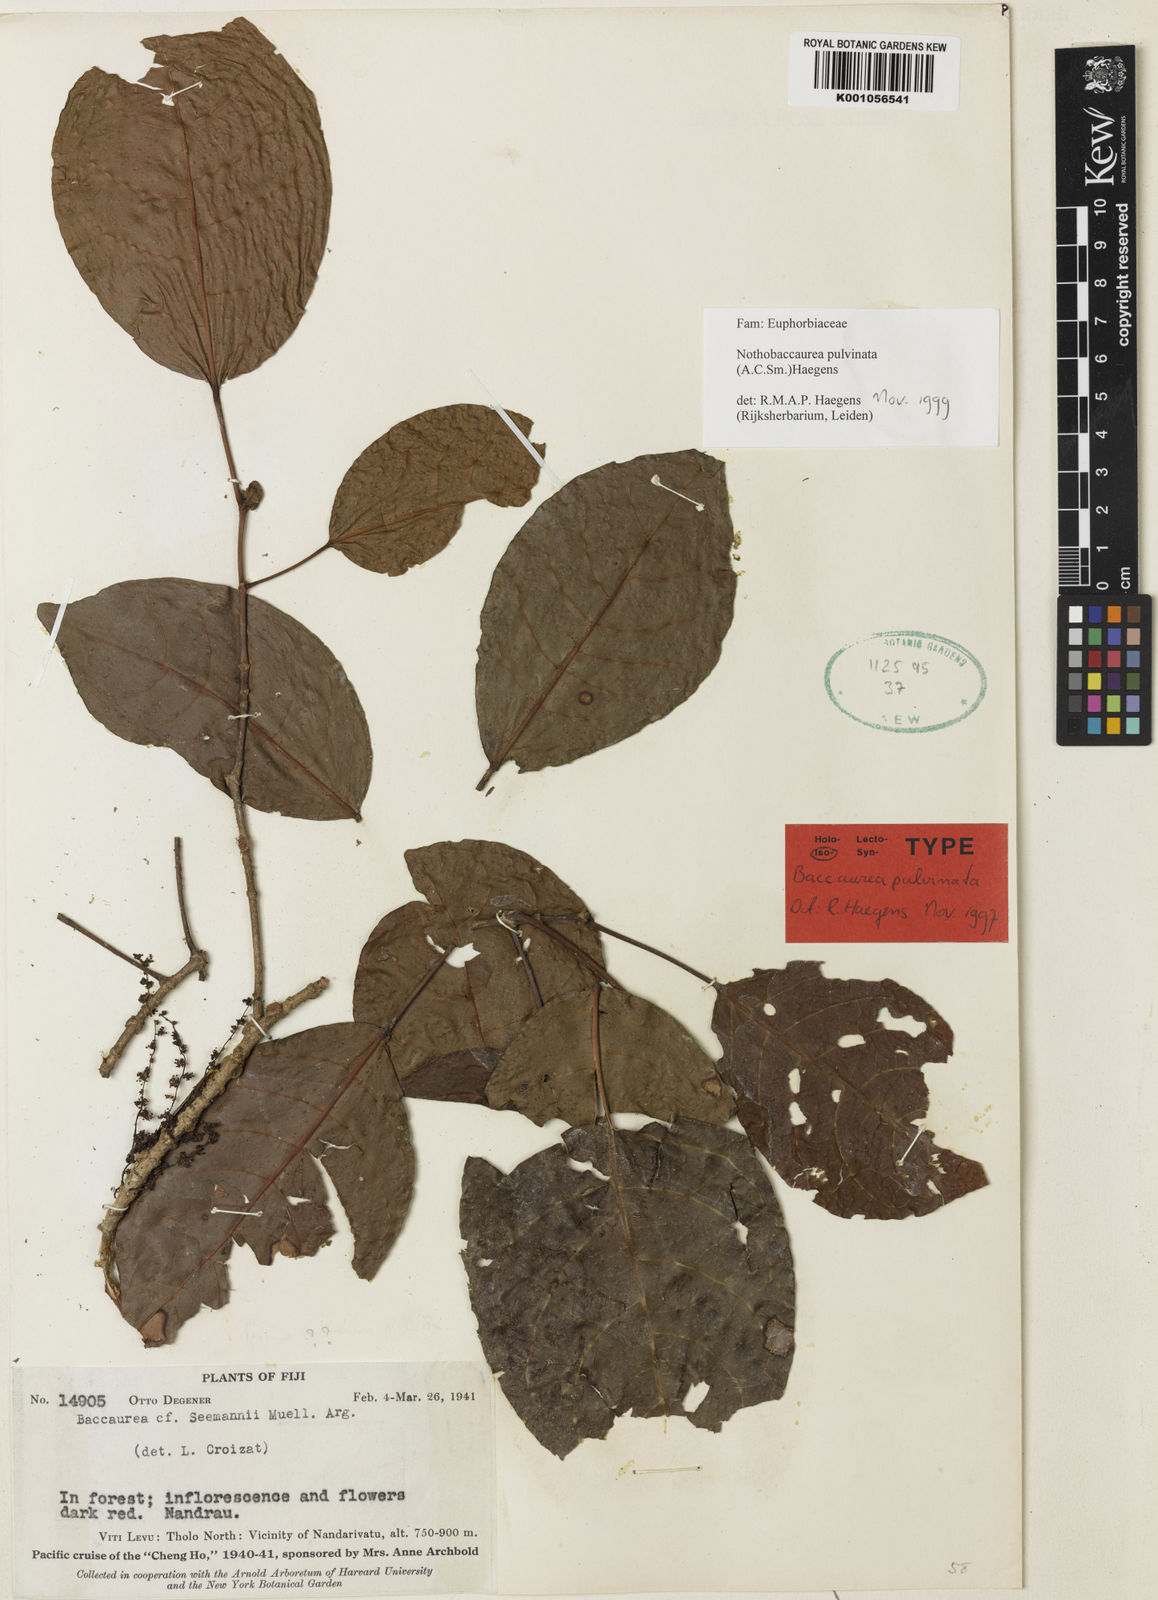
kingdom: Plantae
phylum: Tracheophyta
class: Magnoliopsida
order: Malpighiales
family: Phyllanthaceae
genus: Nothobaccaurea
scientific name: Nothobaccaurea pulvinata
